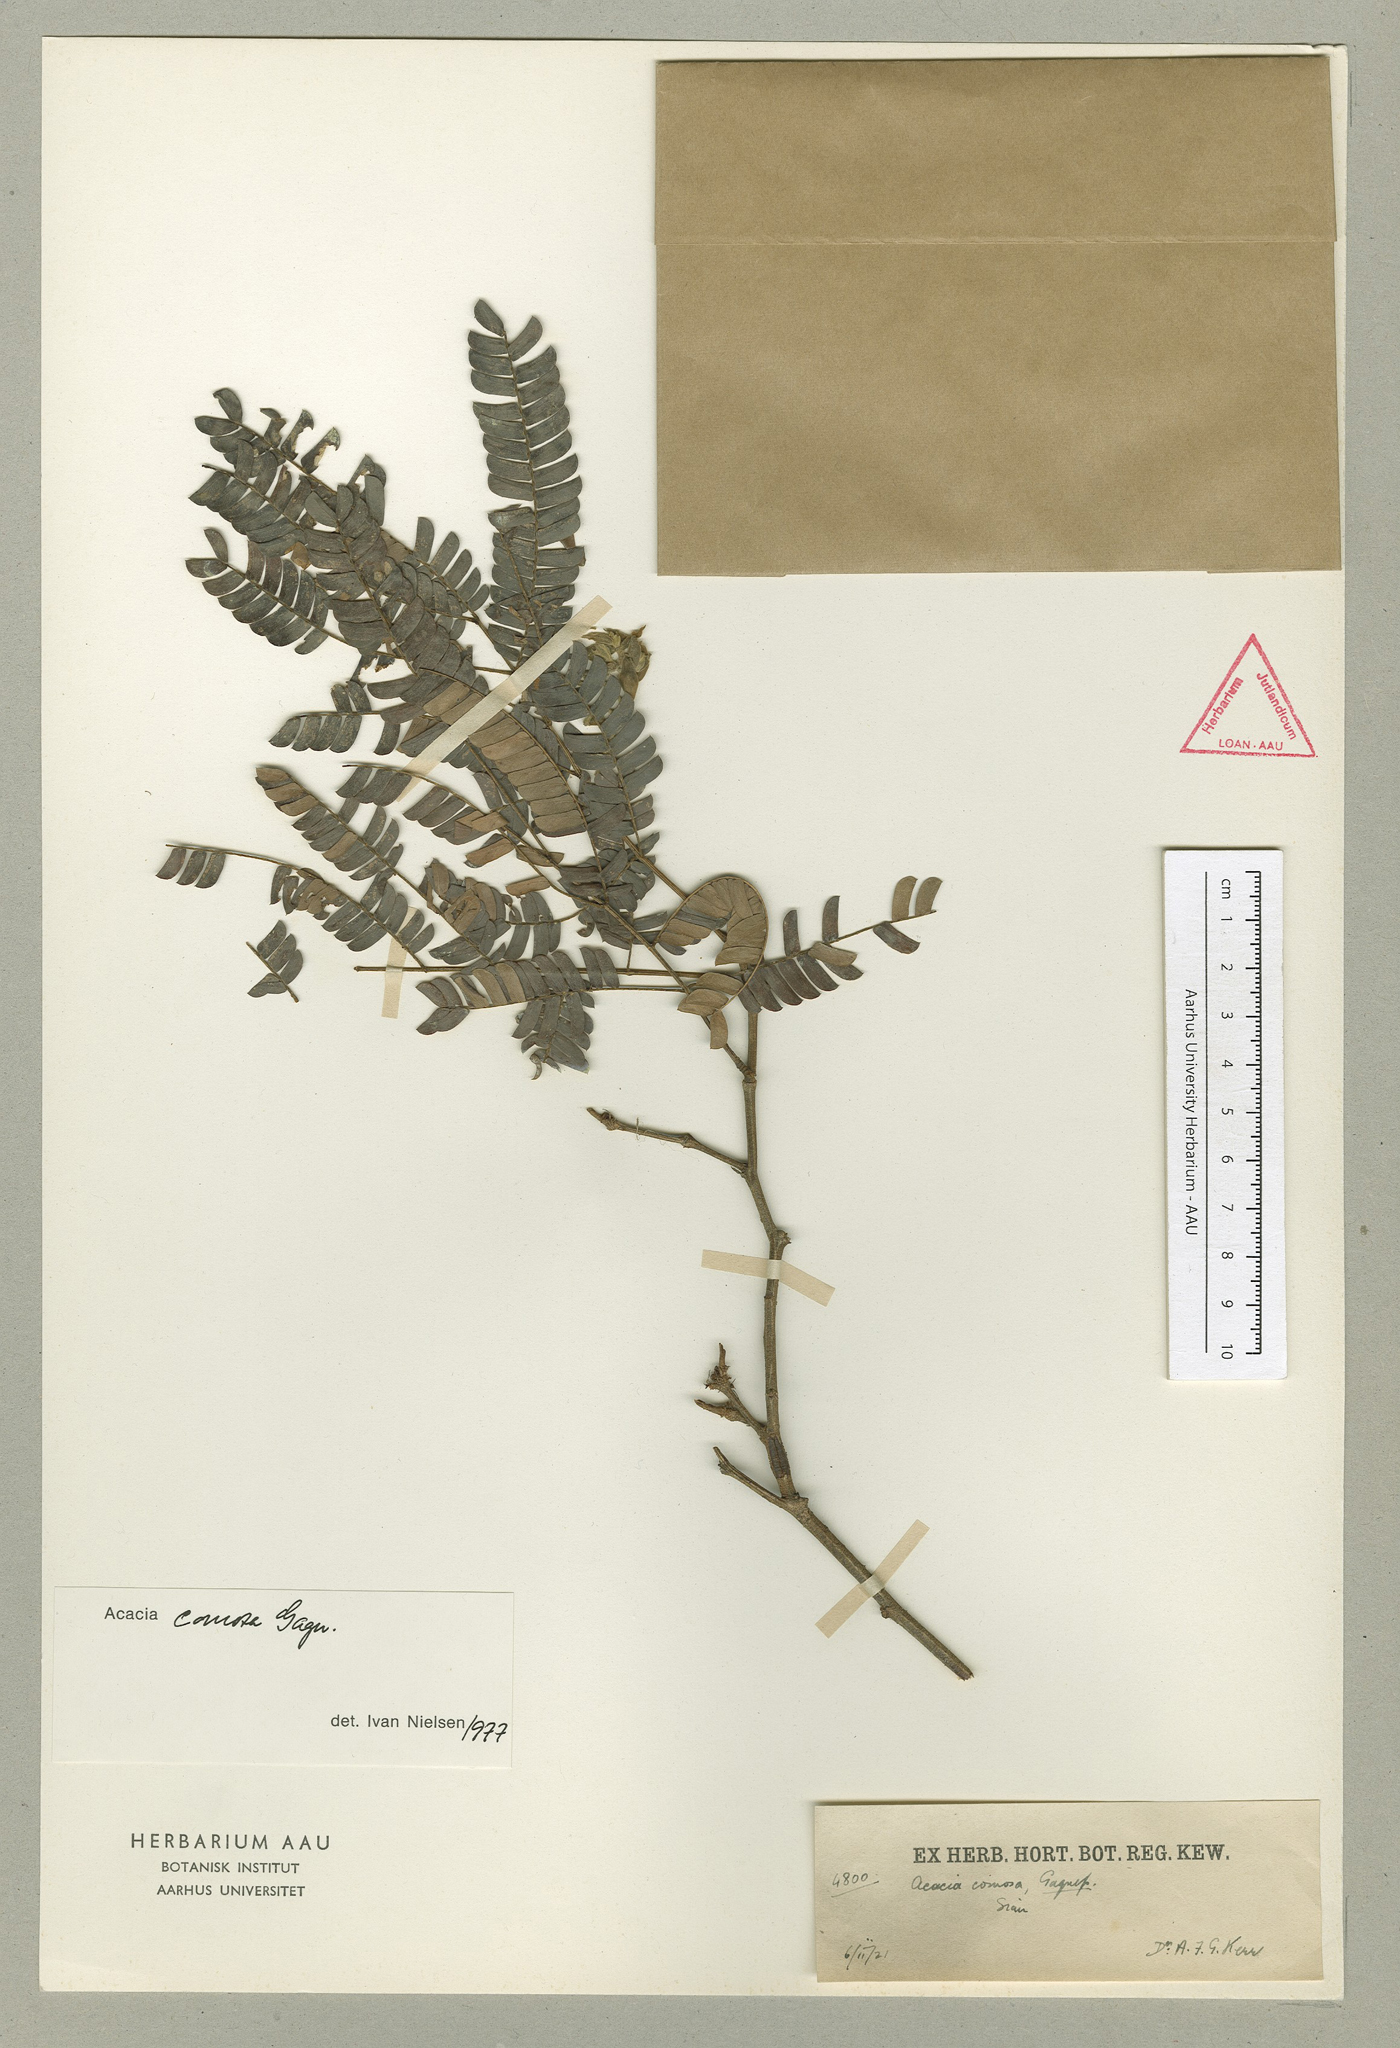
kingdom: Plantae
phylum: Tracheophyta
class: Magnoliopsida
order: Fabales
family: Fabaceae
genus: Senegalia
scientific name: Senegalia comosa
